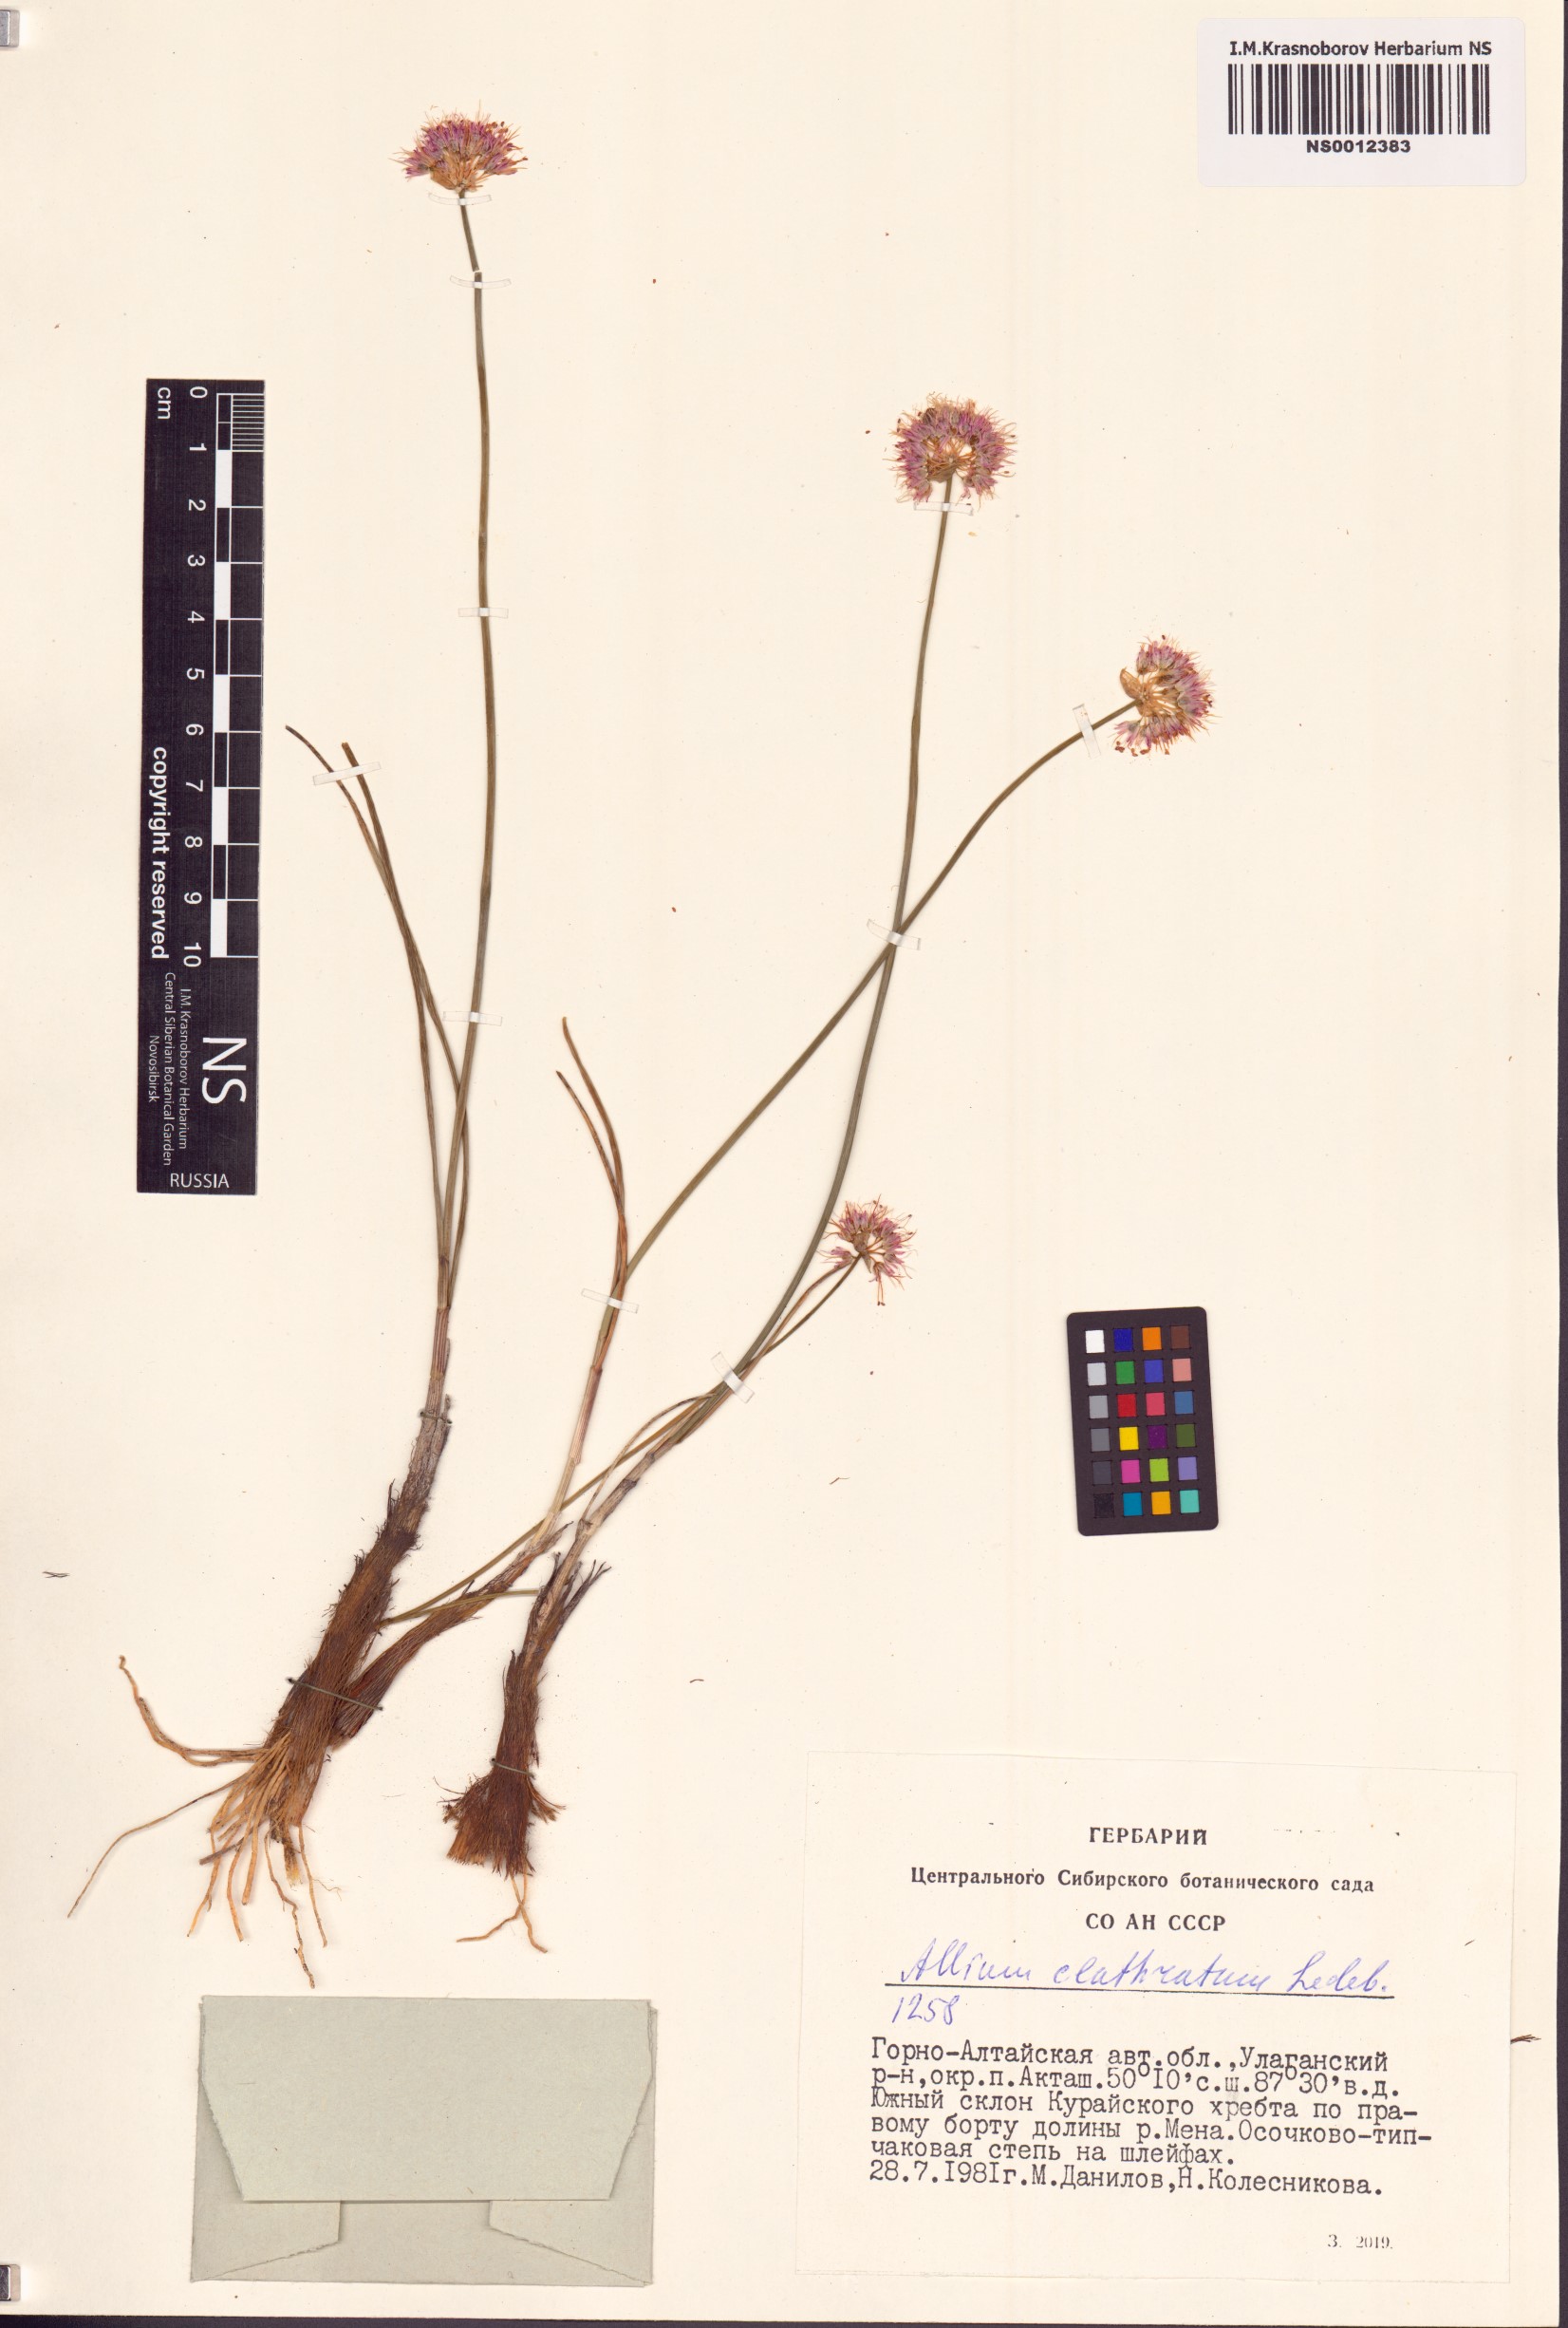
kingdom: Plantae
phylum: Tracheophyta
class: Liliopsida
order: Asparagales
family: Amaryllidaceae
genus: Allium
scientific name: Allium clathratum
